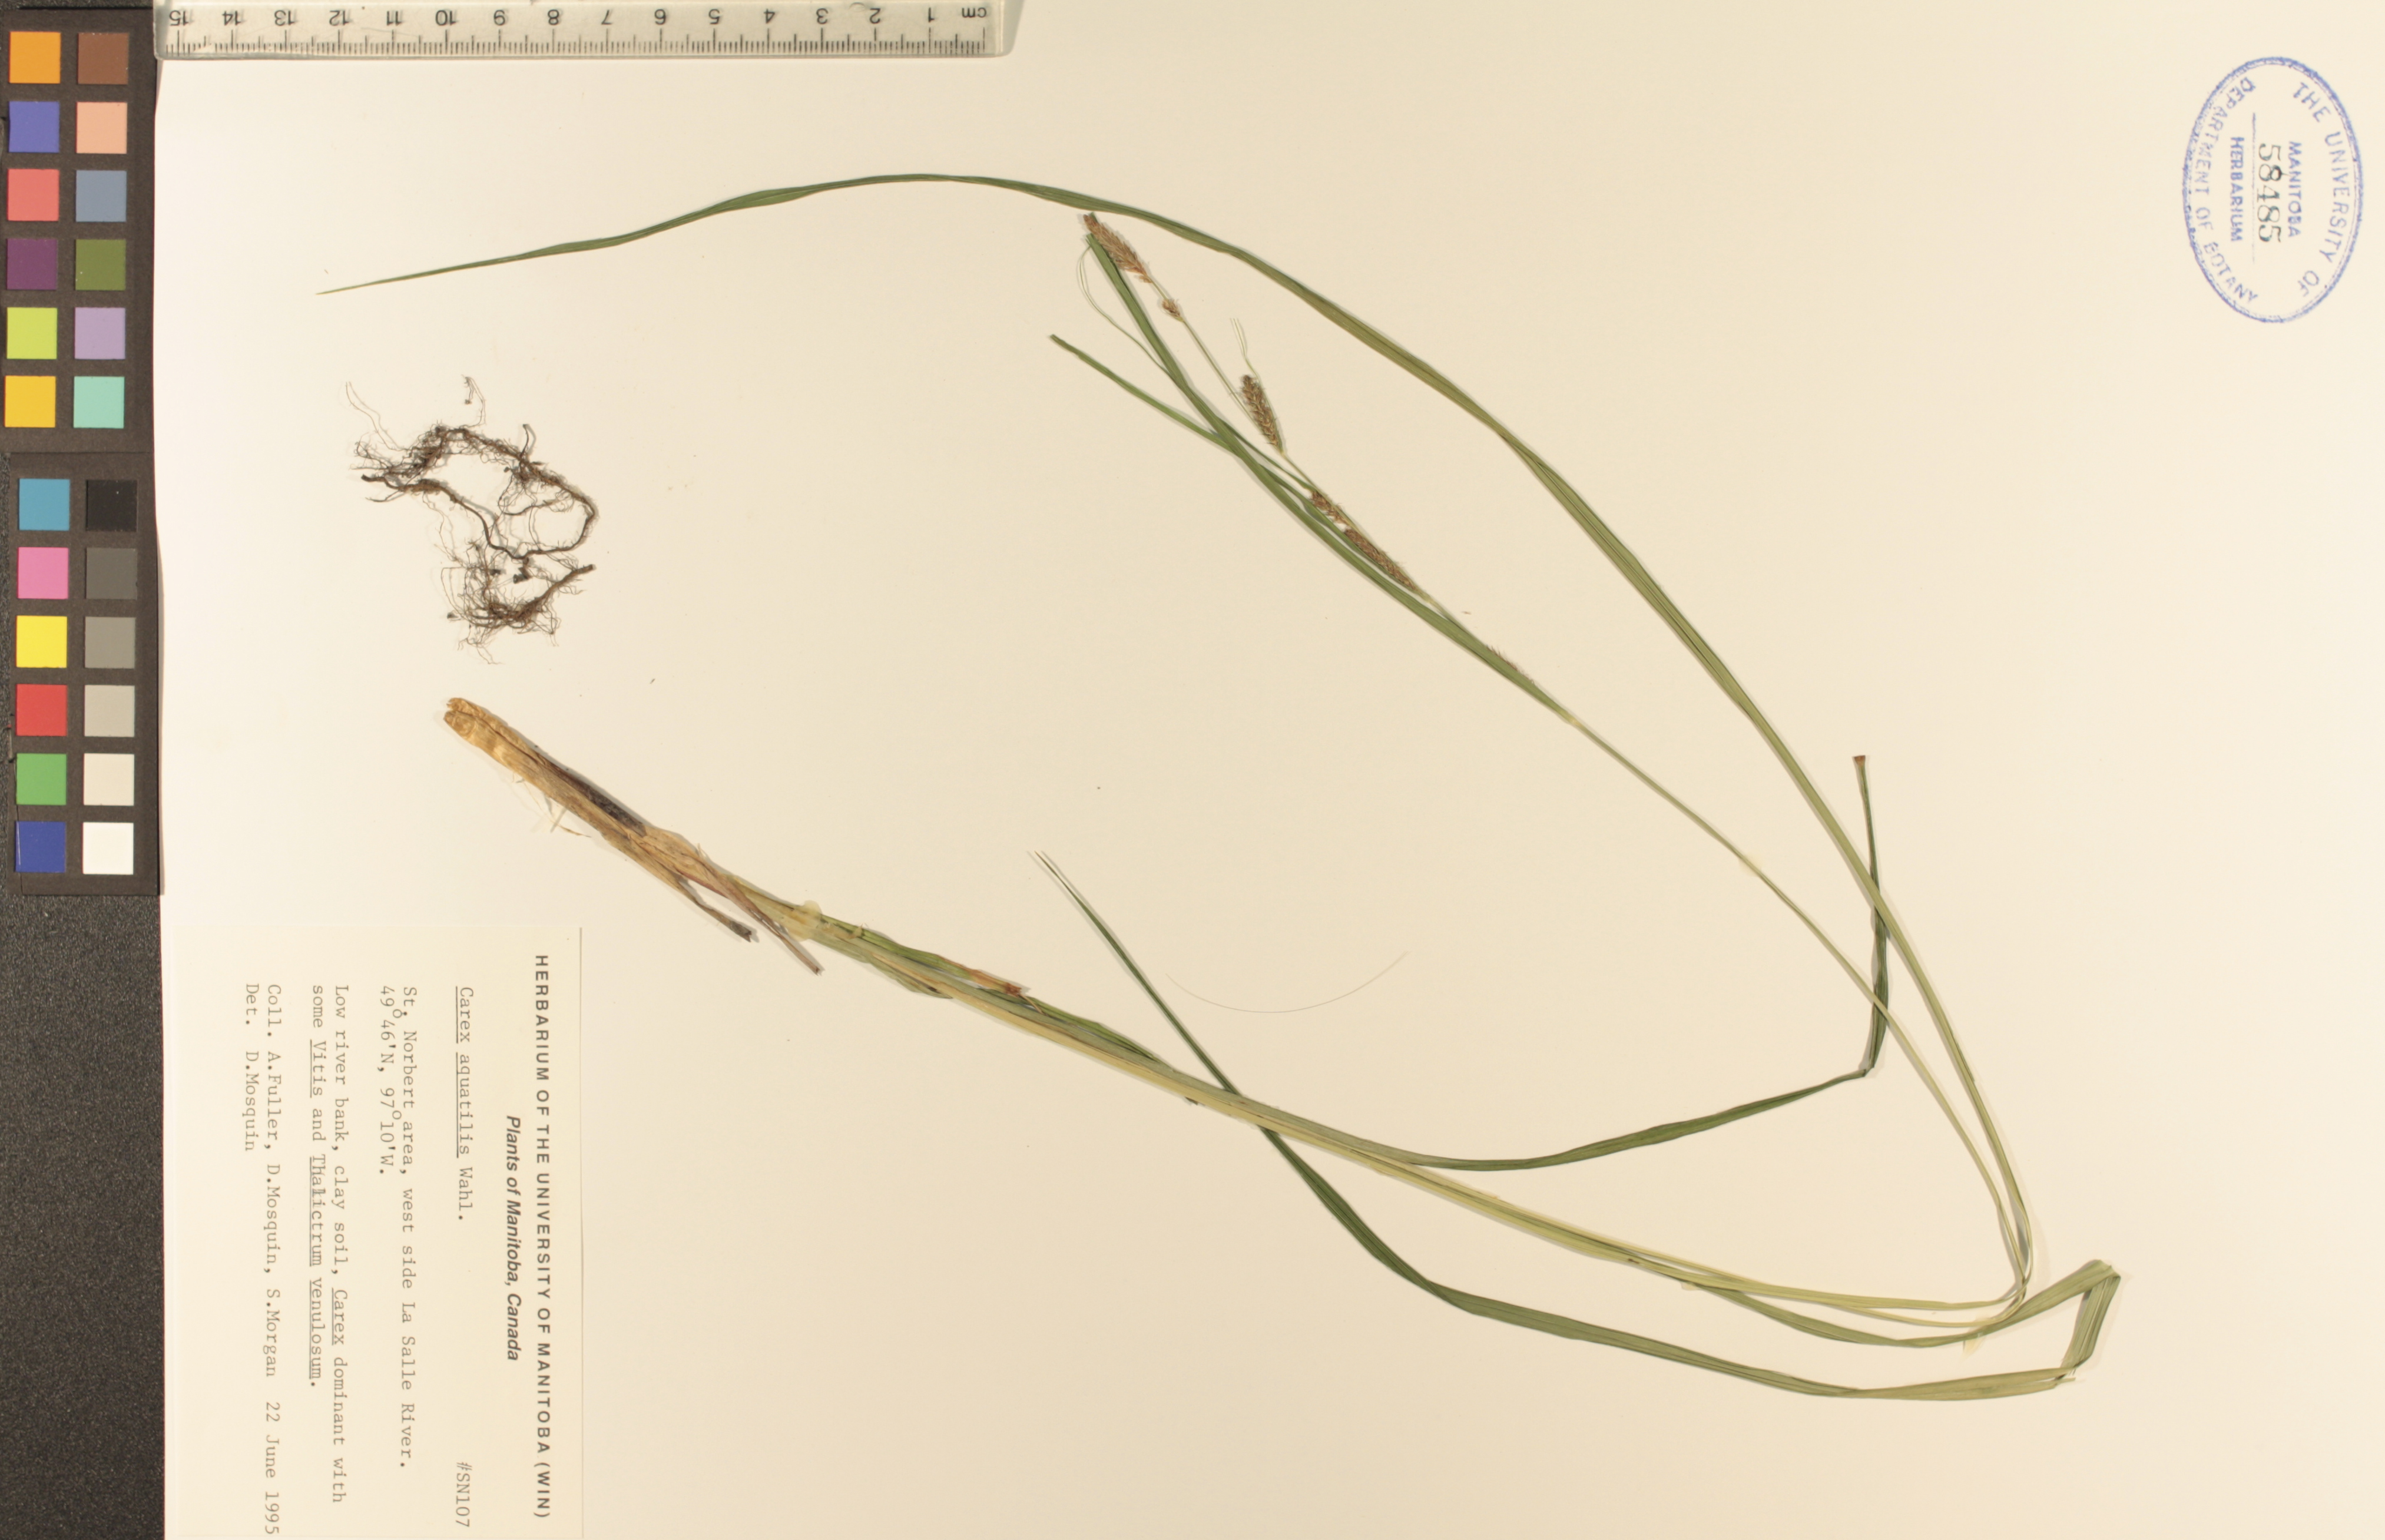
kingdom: Plantae
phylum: Tracheophyta
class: Liliopsida
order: Poales
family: Cyperaceae
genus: Carex
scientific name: Carex aquatilis
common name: Water sedge
